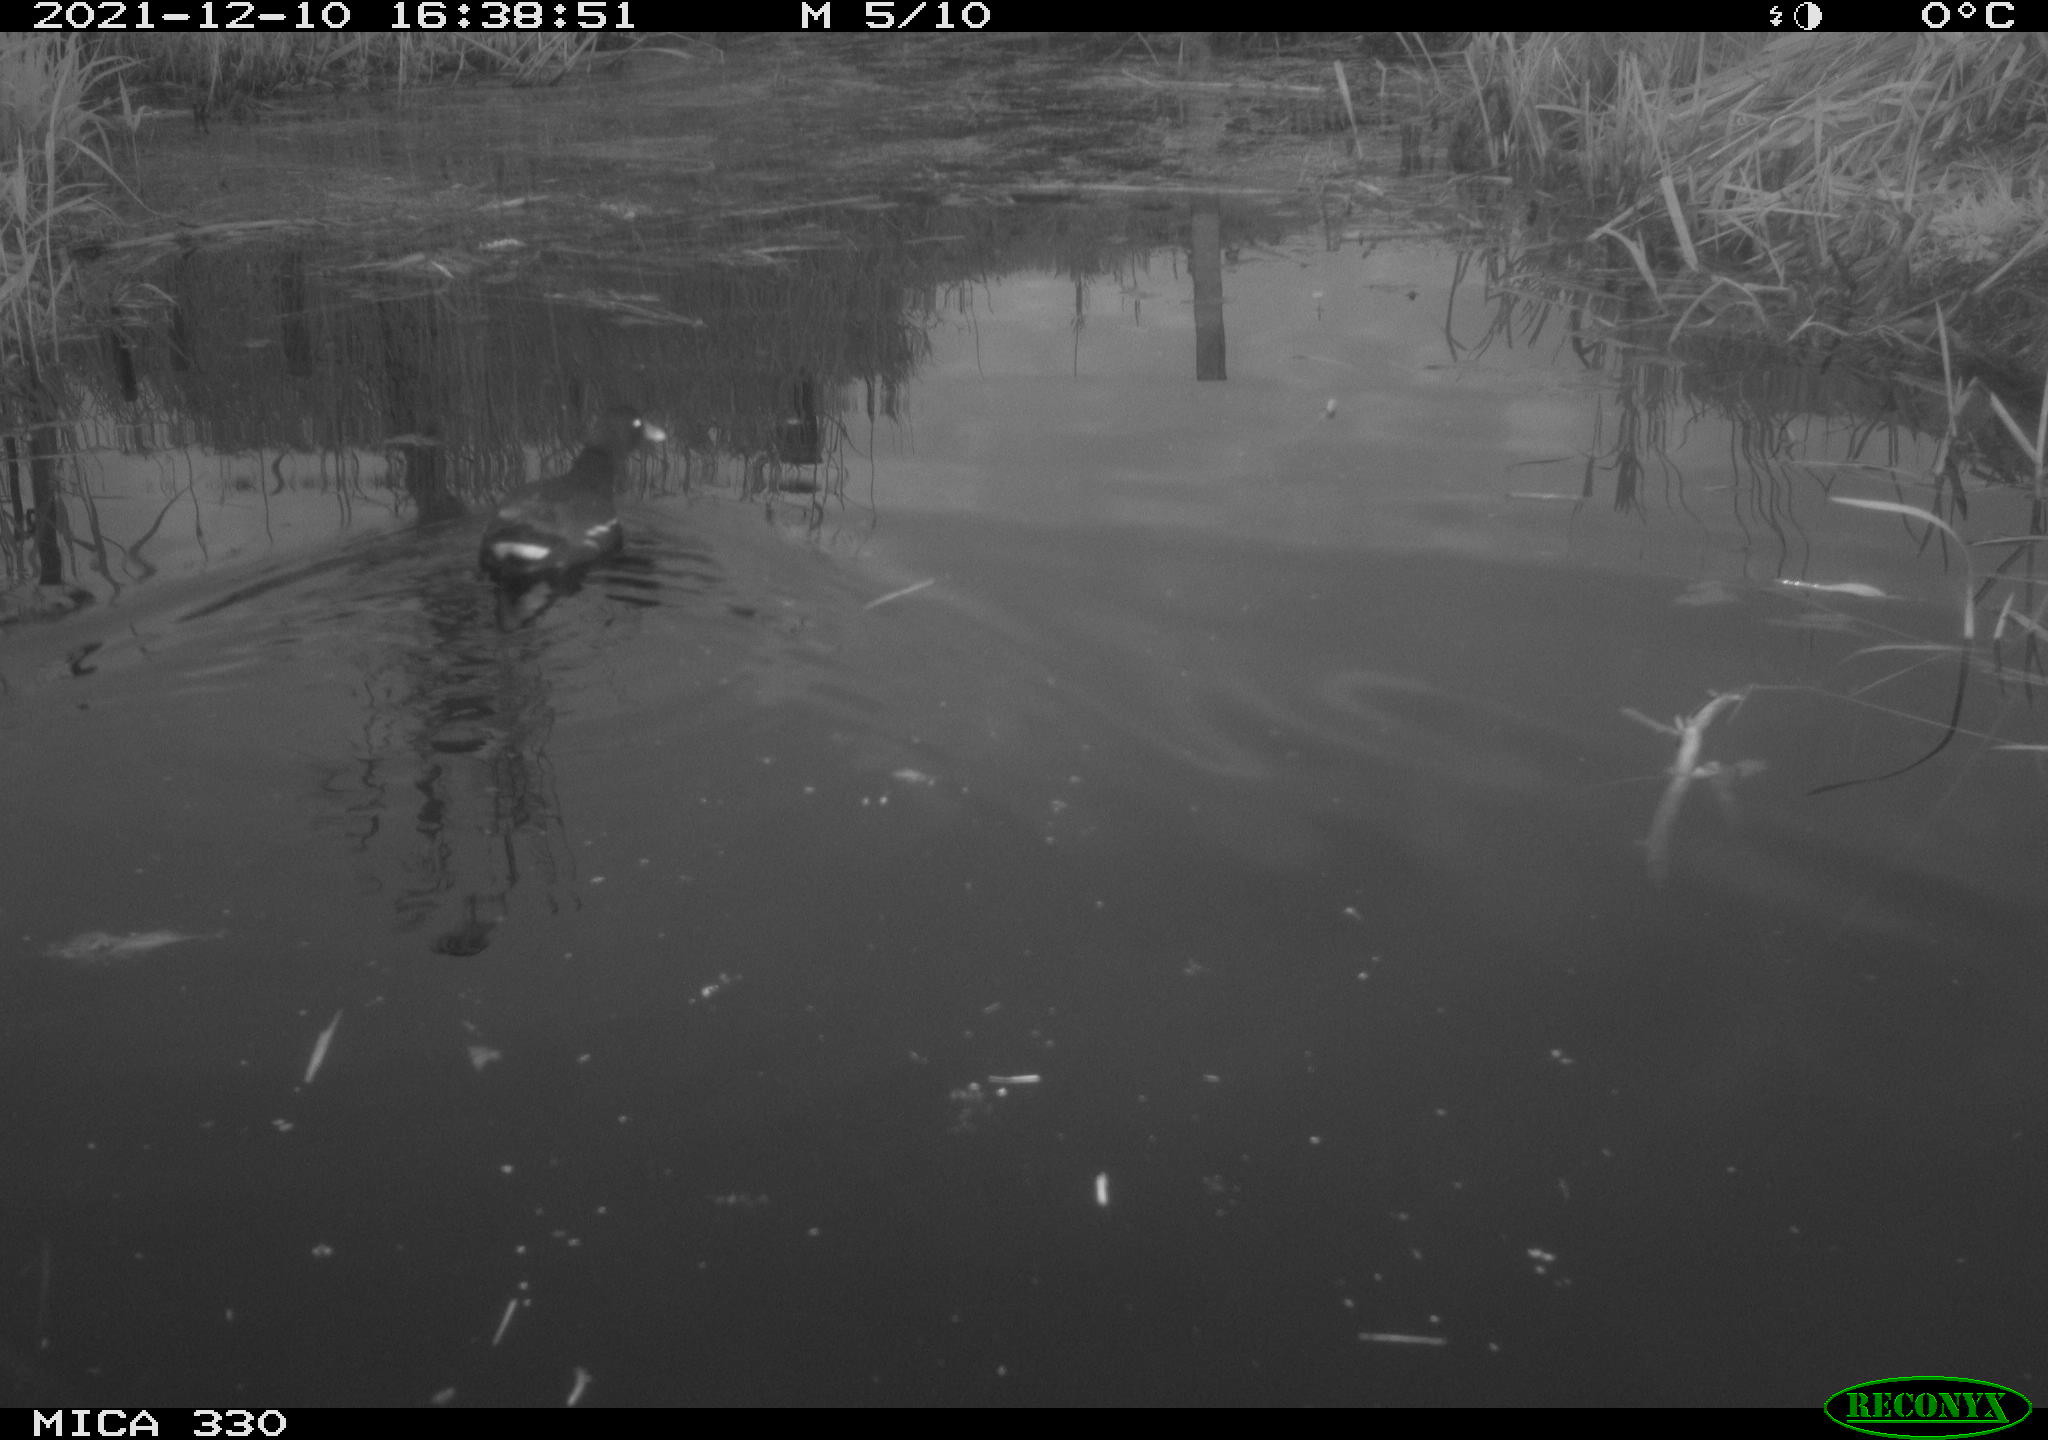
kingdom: Animalia
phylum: Chordata
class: Aves
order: Gruiformes
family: Rallidae
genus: Gallinula
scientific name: Gallinula chloropus
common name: Common moorhen
